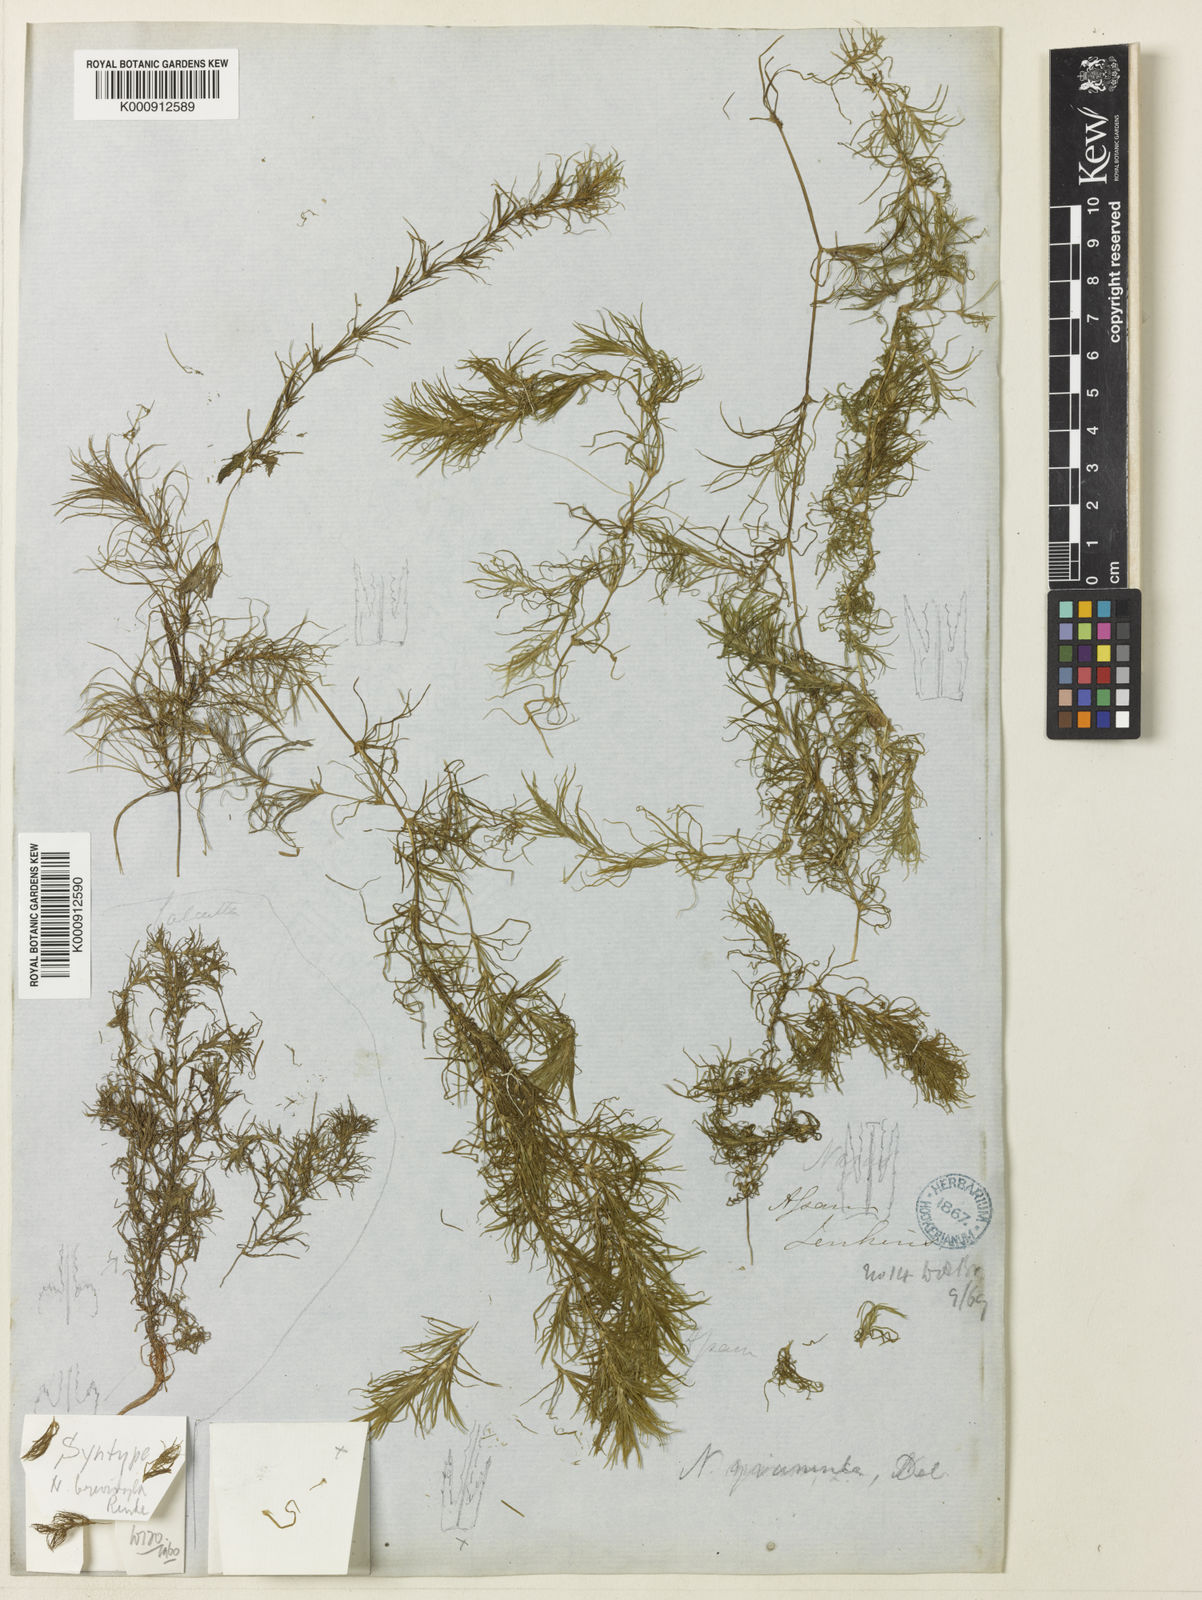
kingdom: Plantae
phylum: Tracheophyta
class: Liliopsida
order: Alismatales
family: Hydrocharitaceae
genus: Najas
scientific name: Najas brevistyla
